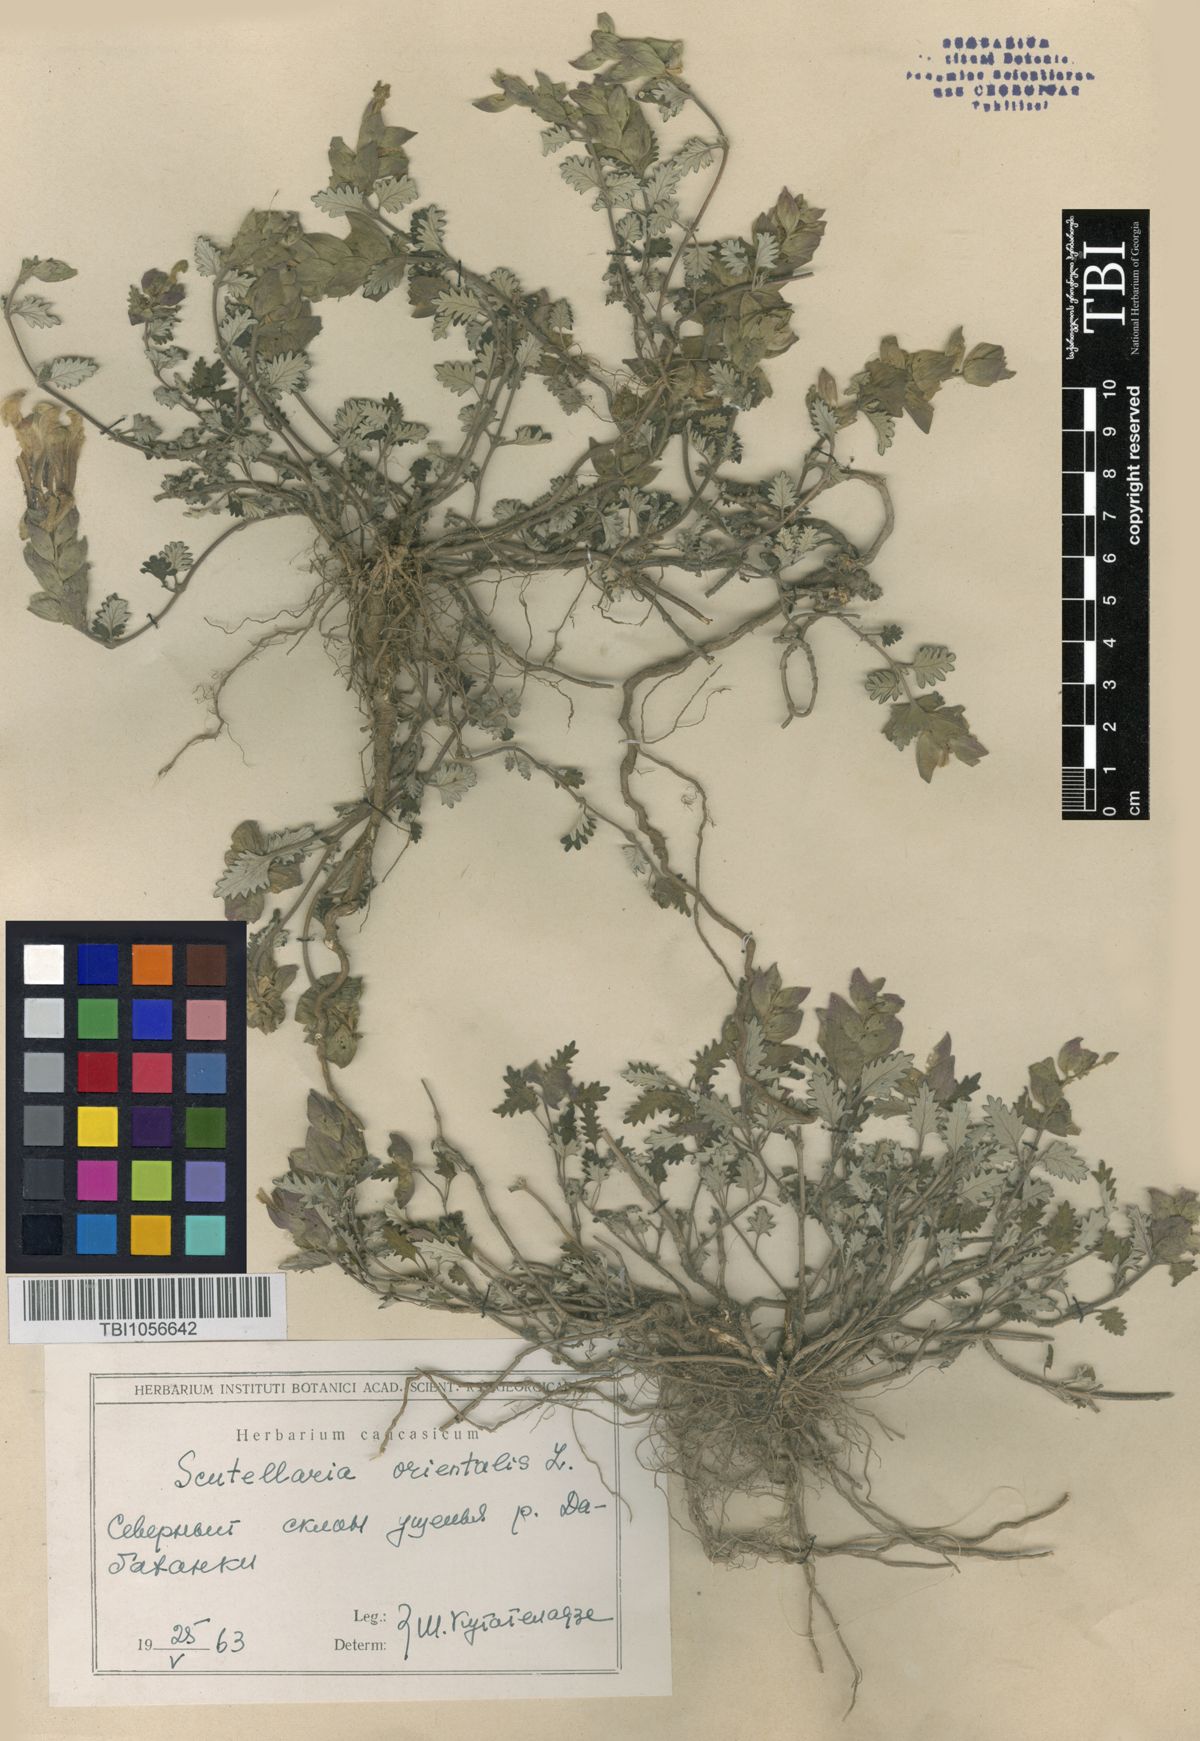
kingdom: Plantae
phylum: Tracheophyta
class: Magnoliopsida
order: Lamiales
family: Lamiaceae
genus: Scutellaria
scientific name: Scutellaria orientalis
